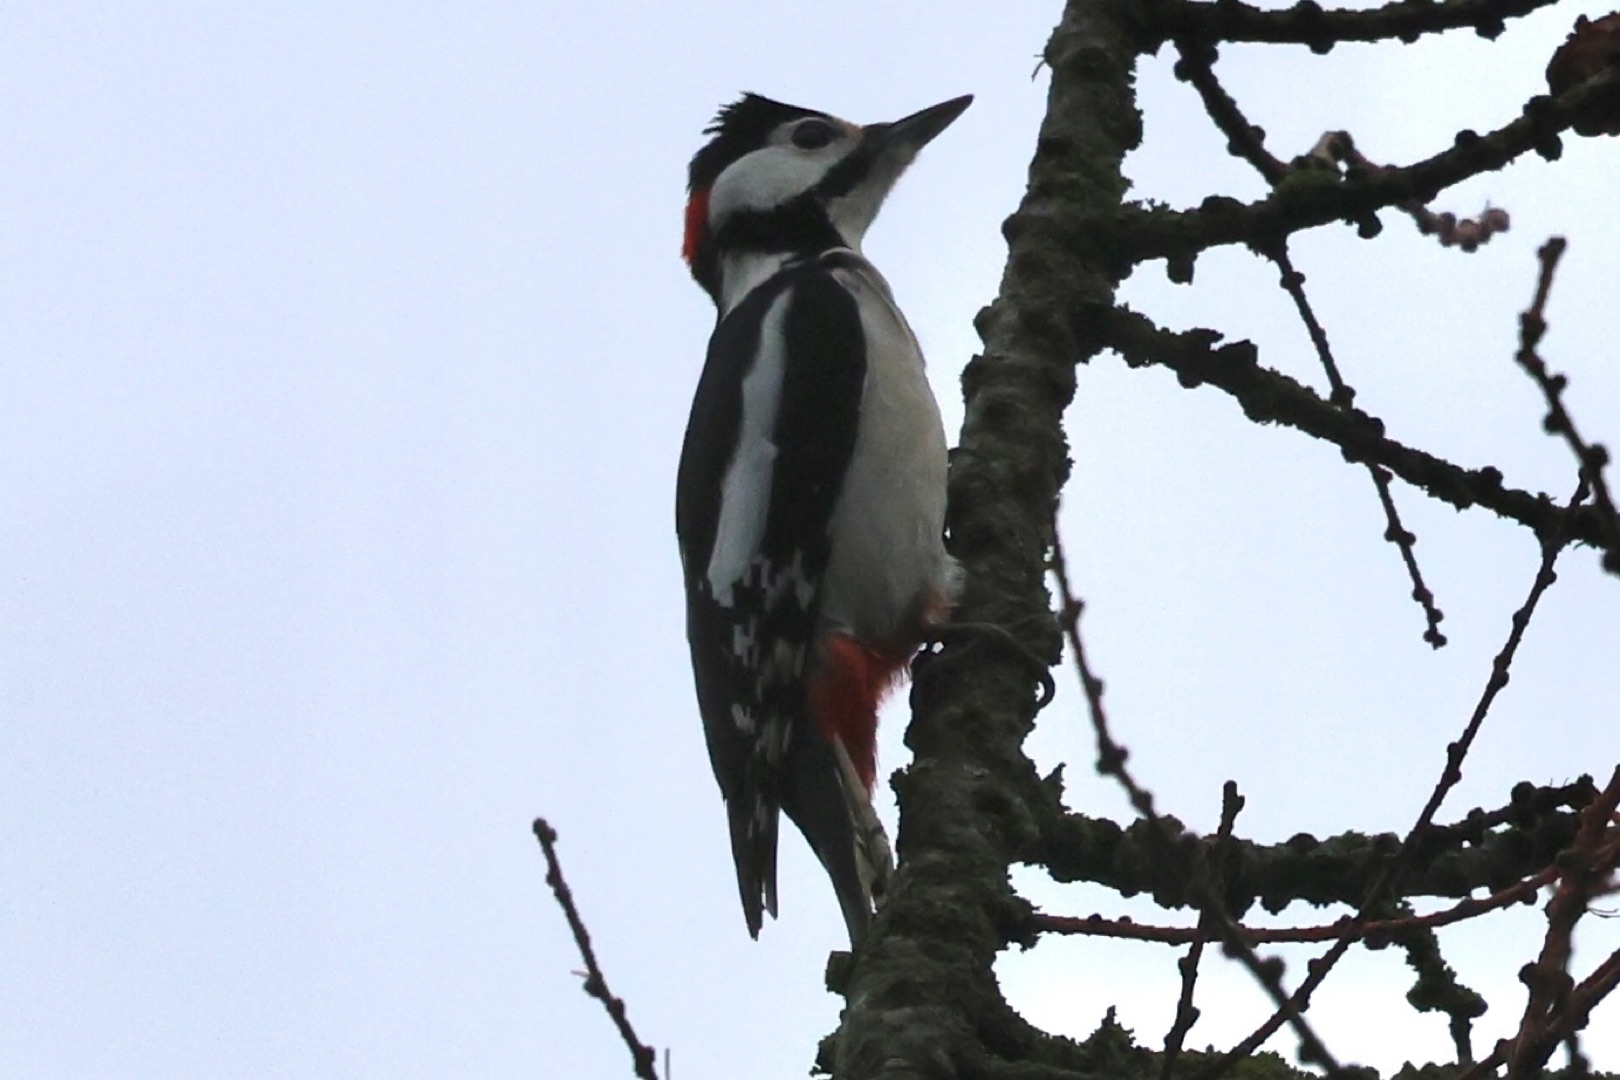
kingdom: Animalia
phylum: Chordata
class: Aves
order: Piciformes
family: Picidae
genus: Dendrocopos
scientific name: Dendrocopos major
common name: Stor flagspætte
